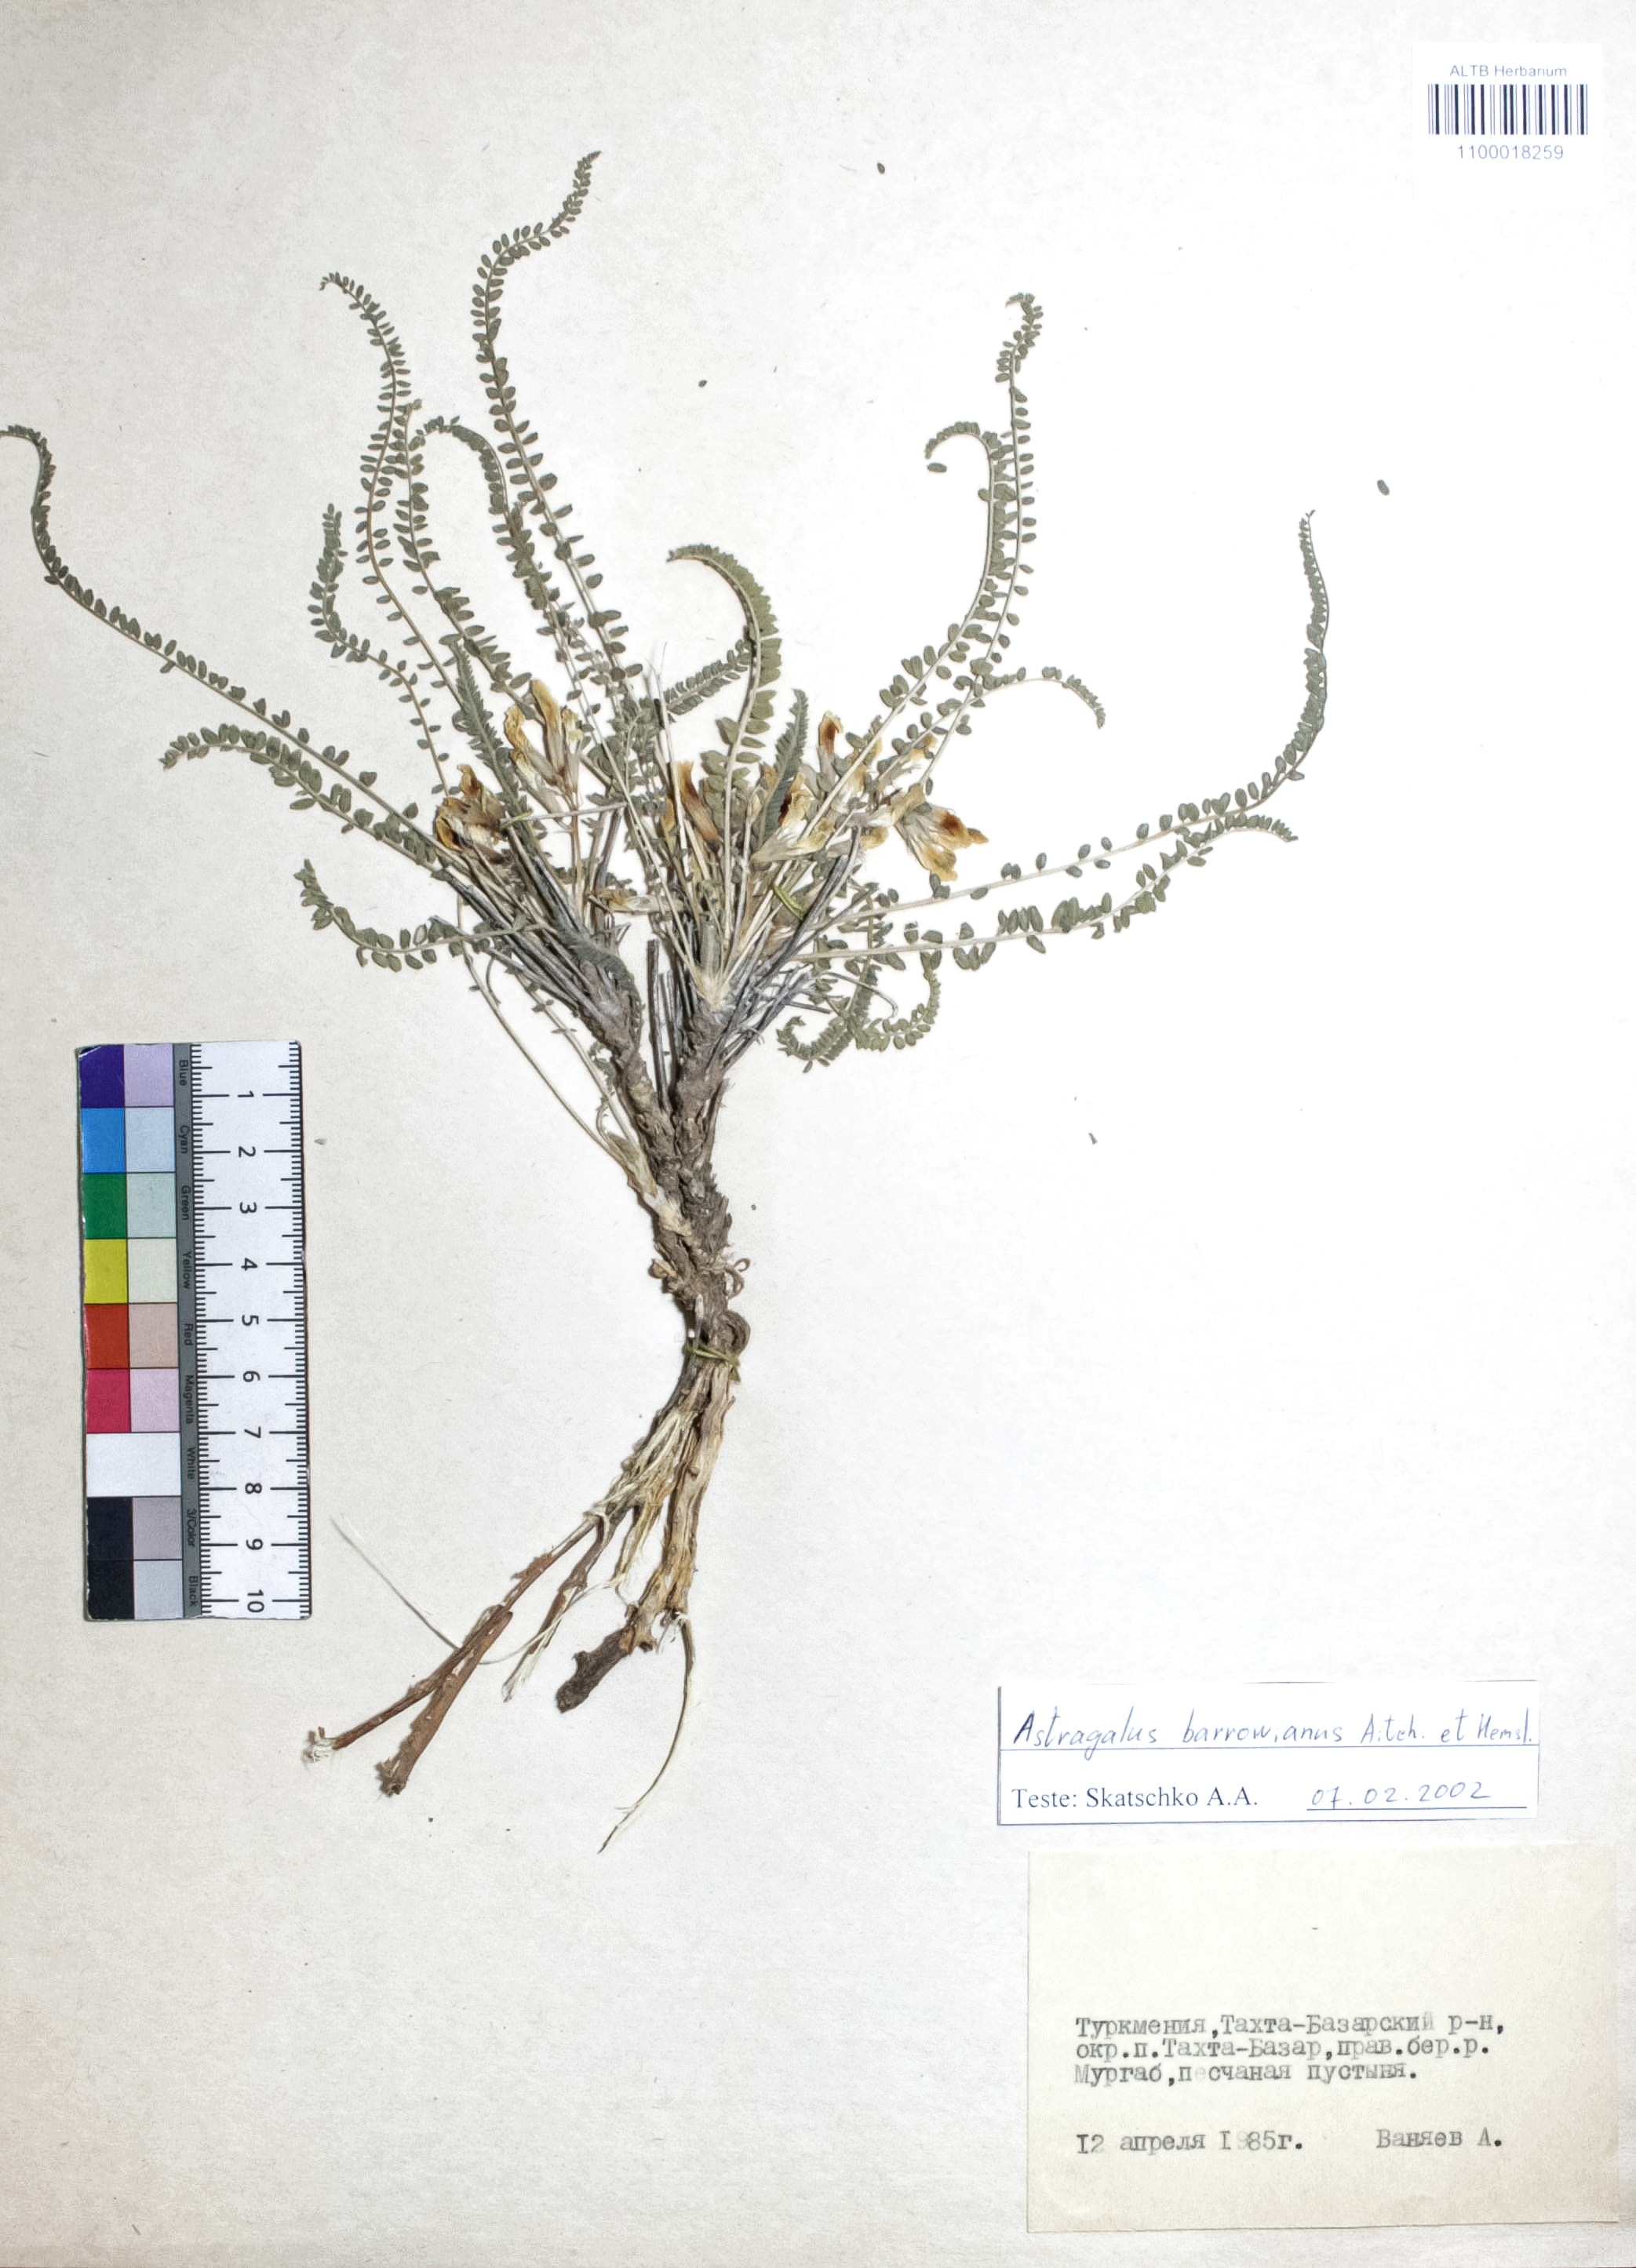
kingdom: Plantae
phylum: Tracheophyta
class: Magnoliopsida
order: Fabales
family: Fabaceae
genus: Astragalus
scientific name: Astragalus citrinus
